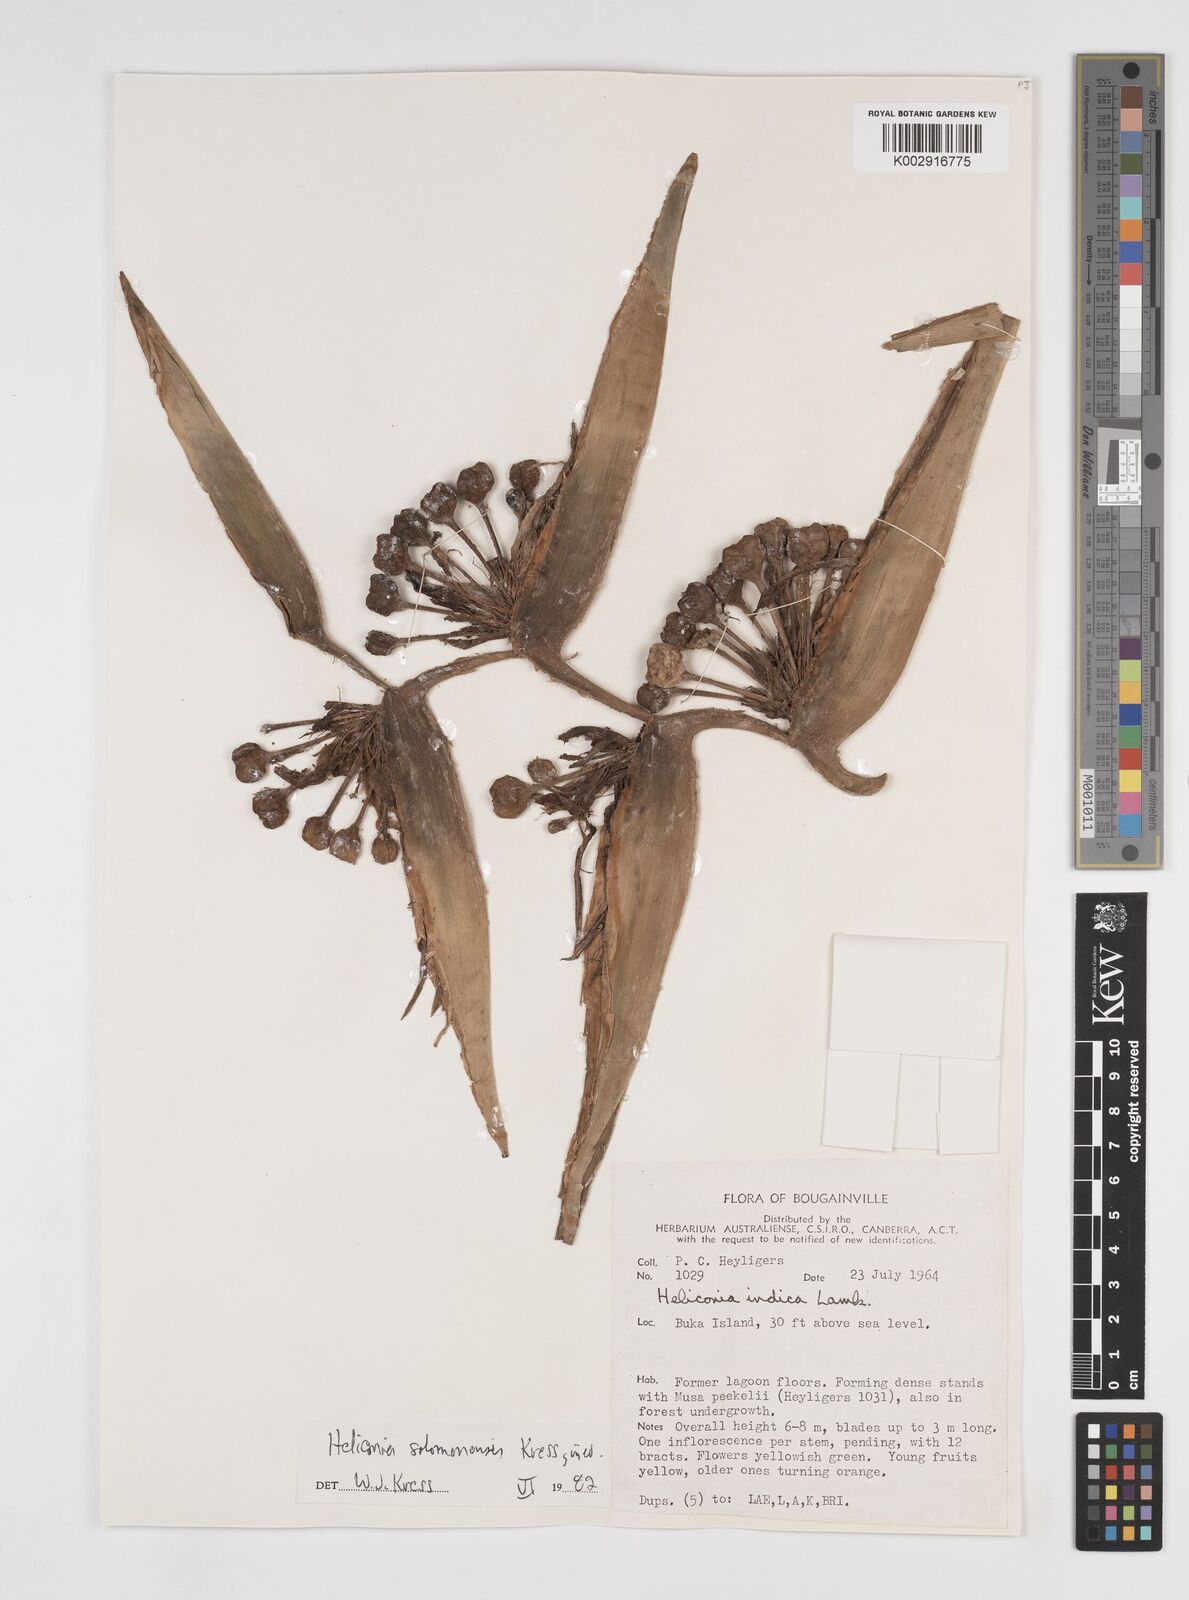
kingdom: Plantae
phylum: Tracheophyta
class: Liliopsida
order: Zingiberales
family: Heliconiaceae
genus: Heliconia
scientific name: Heliconia solomonensis
